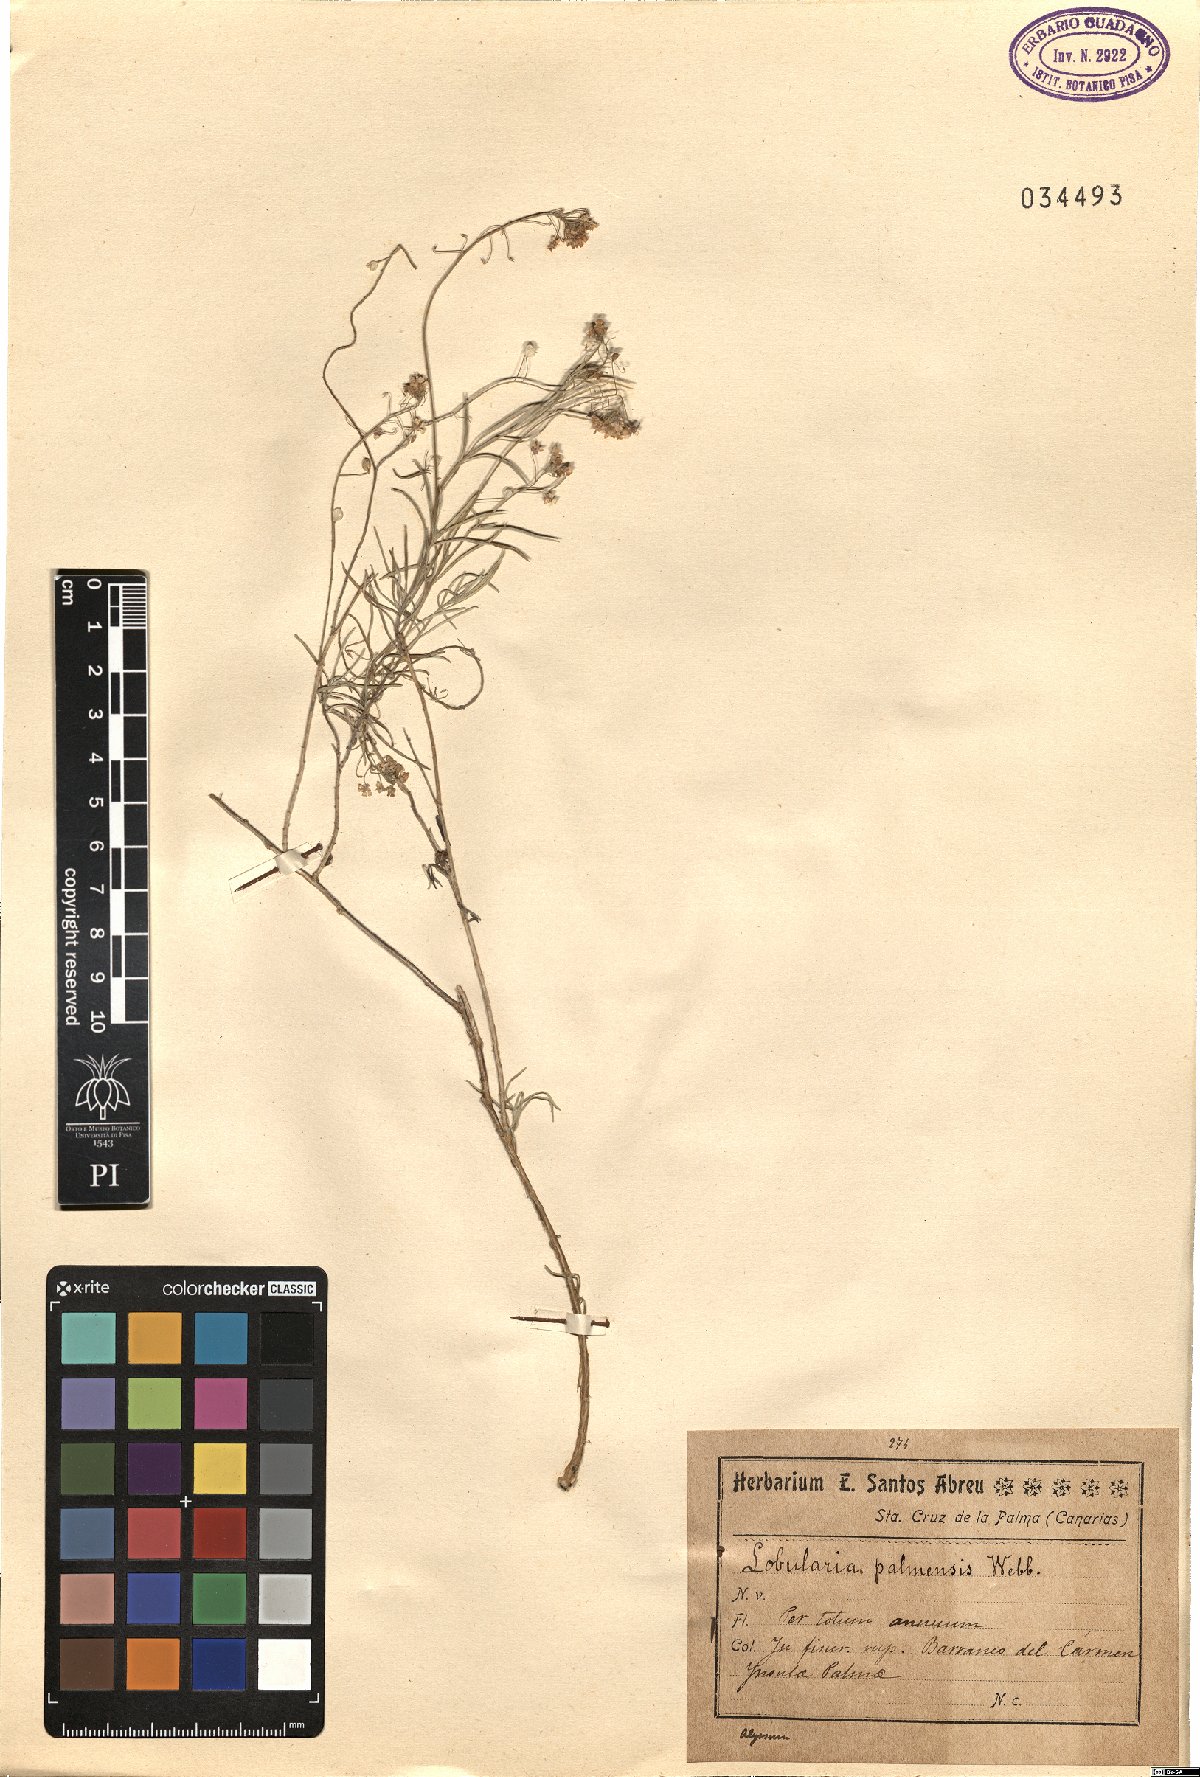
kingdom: Plantae
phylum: Tracheophyta
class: Magnoliopsida
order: Brassicales
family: Brassicaceae
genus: Lobularia
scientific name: Lobularia canariensis
